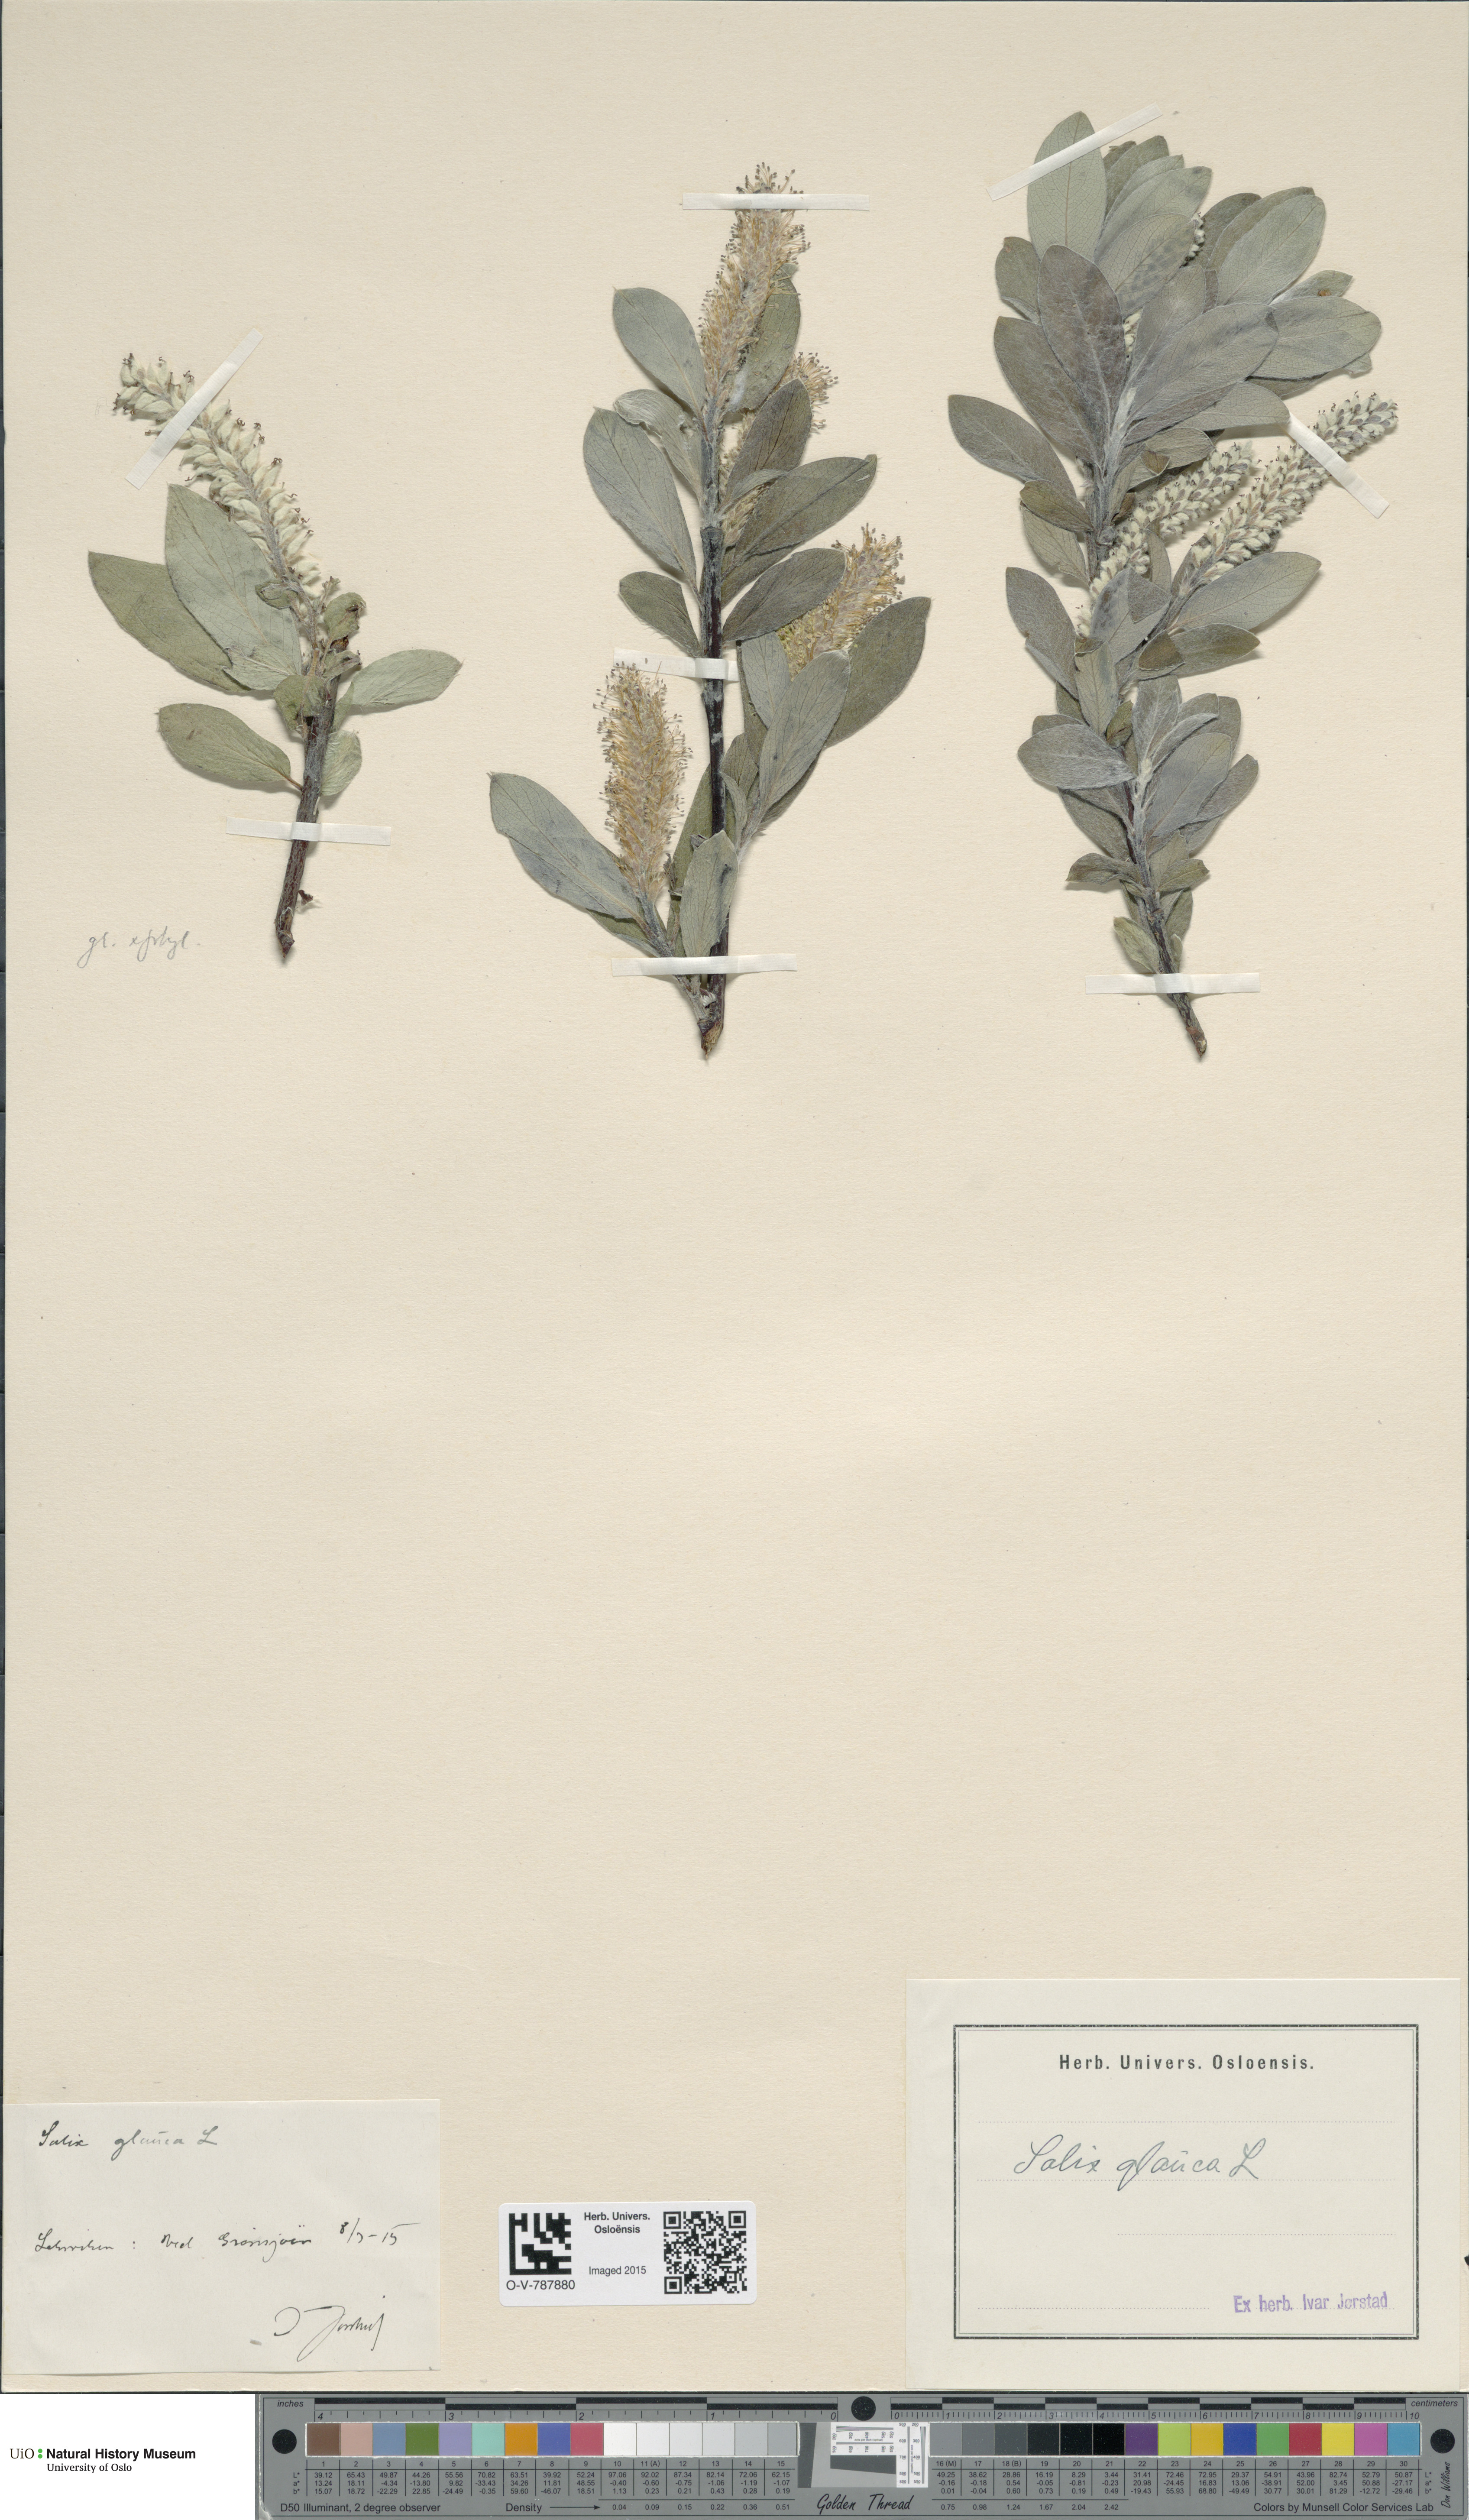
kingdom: Plantae
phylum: Tracheophyta
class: Magnoliopsida
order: Malpighiales
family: Salicaceae
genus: Salix
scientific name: Salix glauca
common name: Glaucous willow
